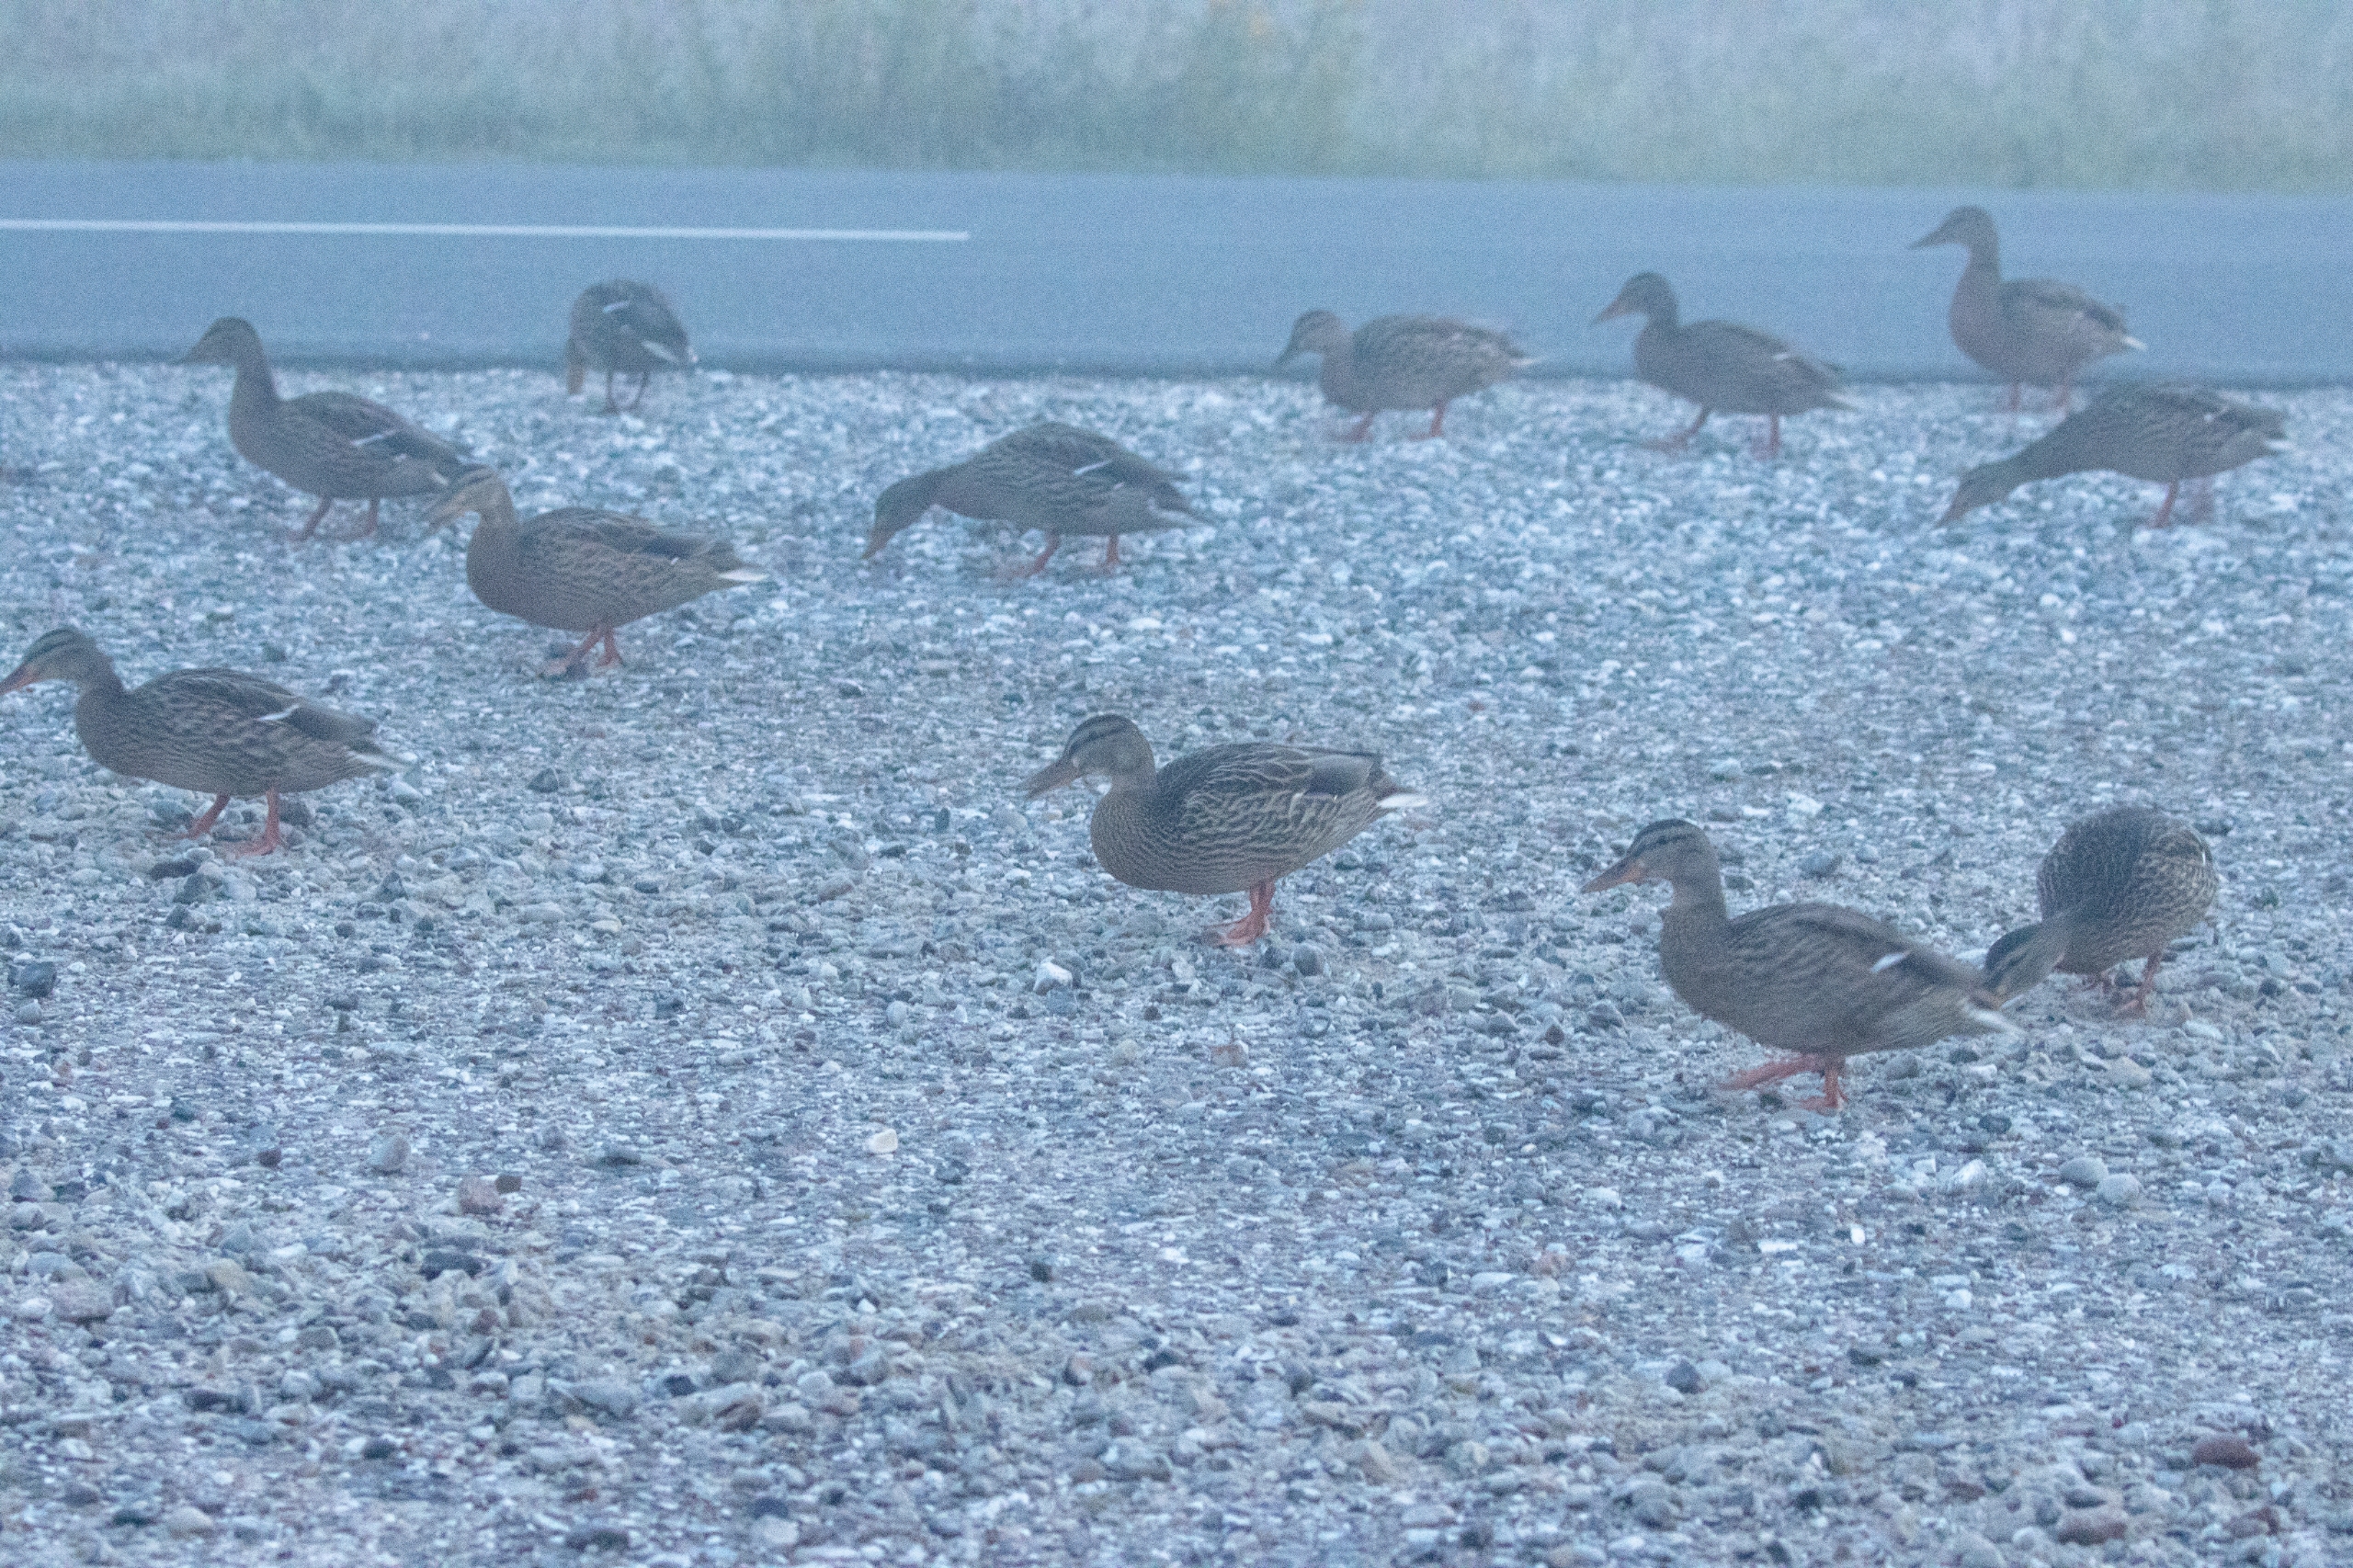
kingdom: Animalia
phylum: Chordata
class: Aves
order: Anseriformes
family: Anatidae
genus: Anas
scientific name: Anas platyrhynchos
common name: Gråand
